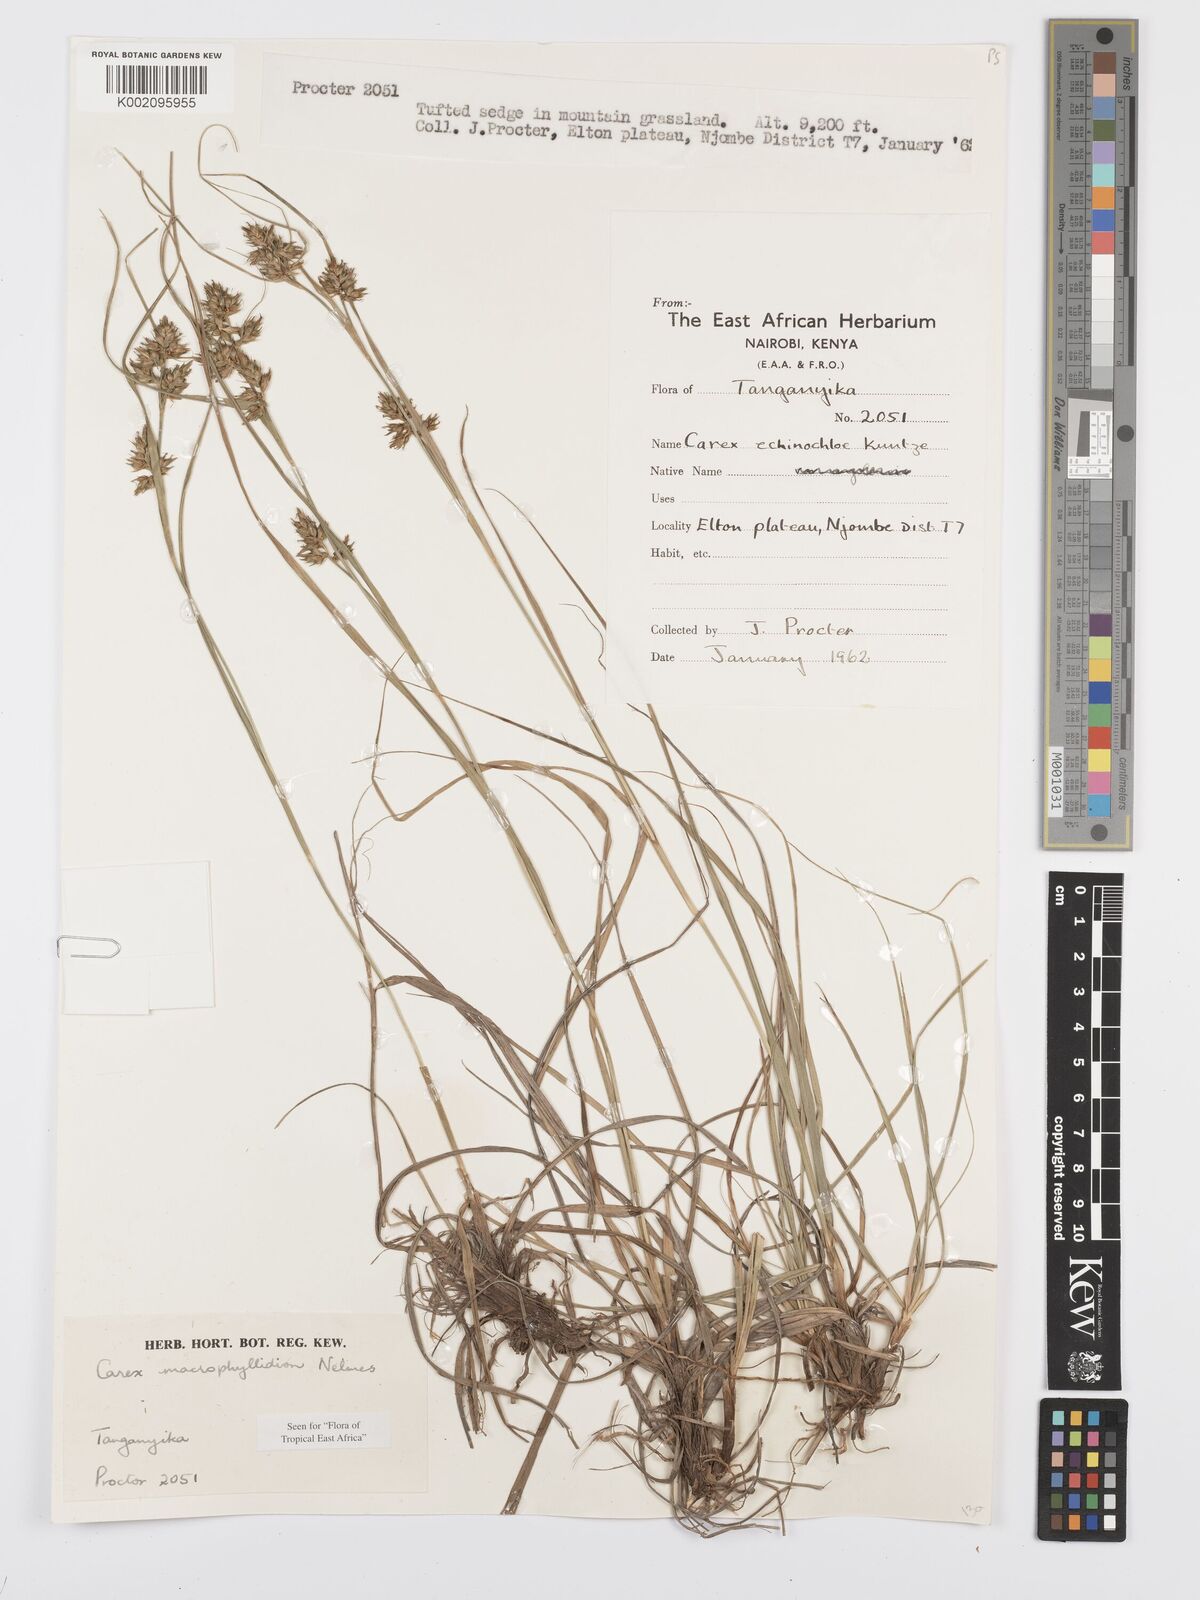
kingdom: Plantae
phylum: Tracheophyta
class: Liliopsida
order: Poales
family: Cyperaceae
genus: Carex
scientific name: Carex macrophyllidion
